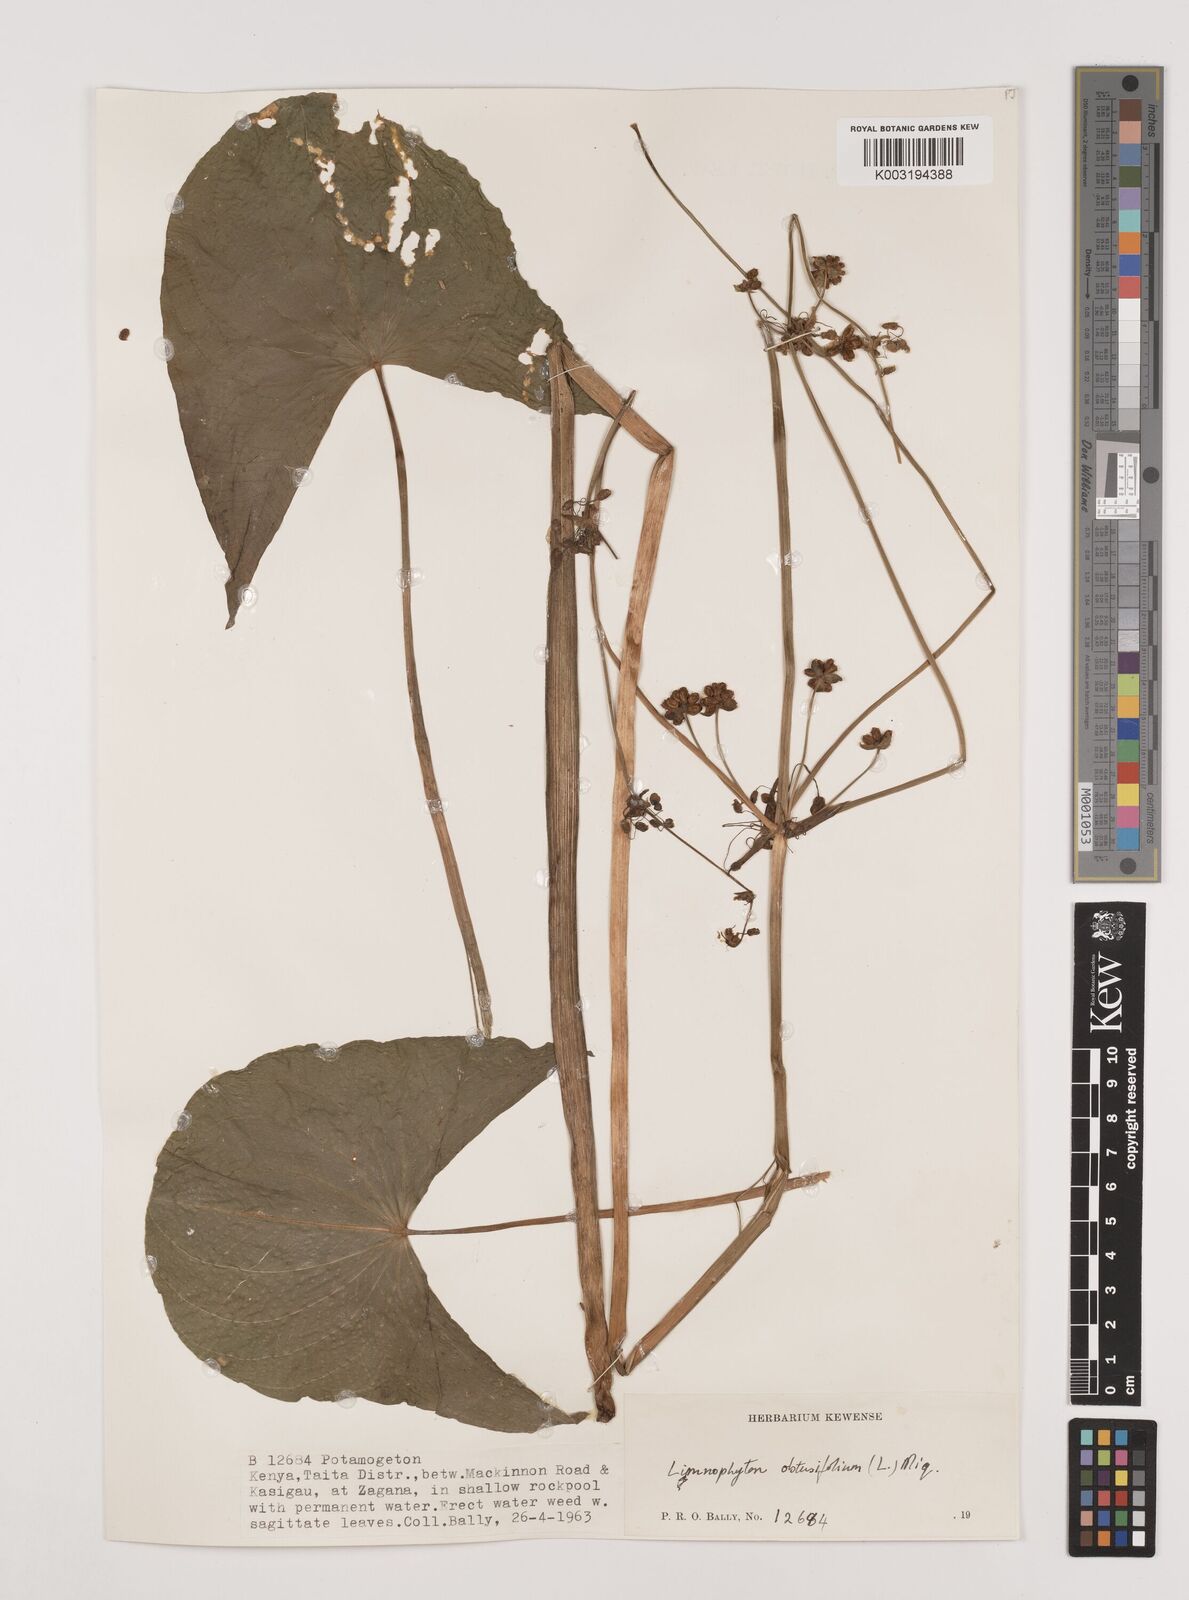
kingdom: Plantae
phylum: Tracheophyta
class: Liliopsida
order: Alismatales
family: Alismataceae
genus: Limnophyton
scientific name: Limnophyton obtusifolium
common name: Arrow head
